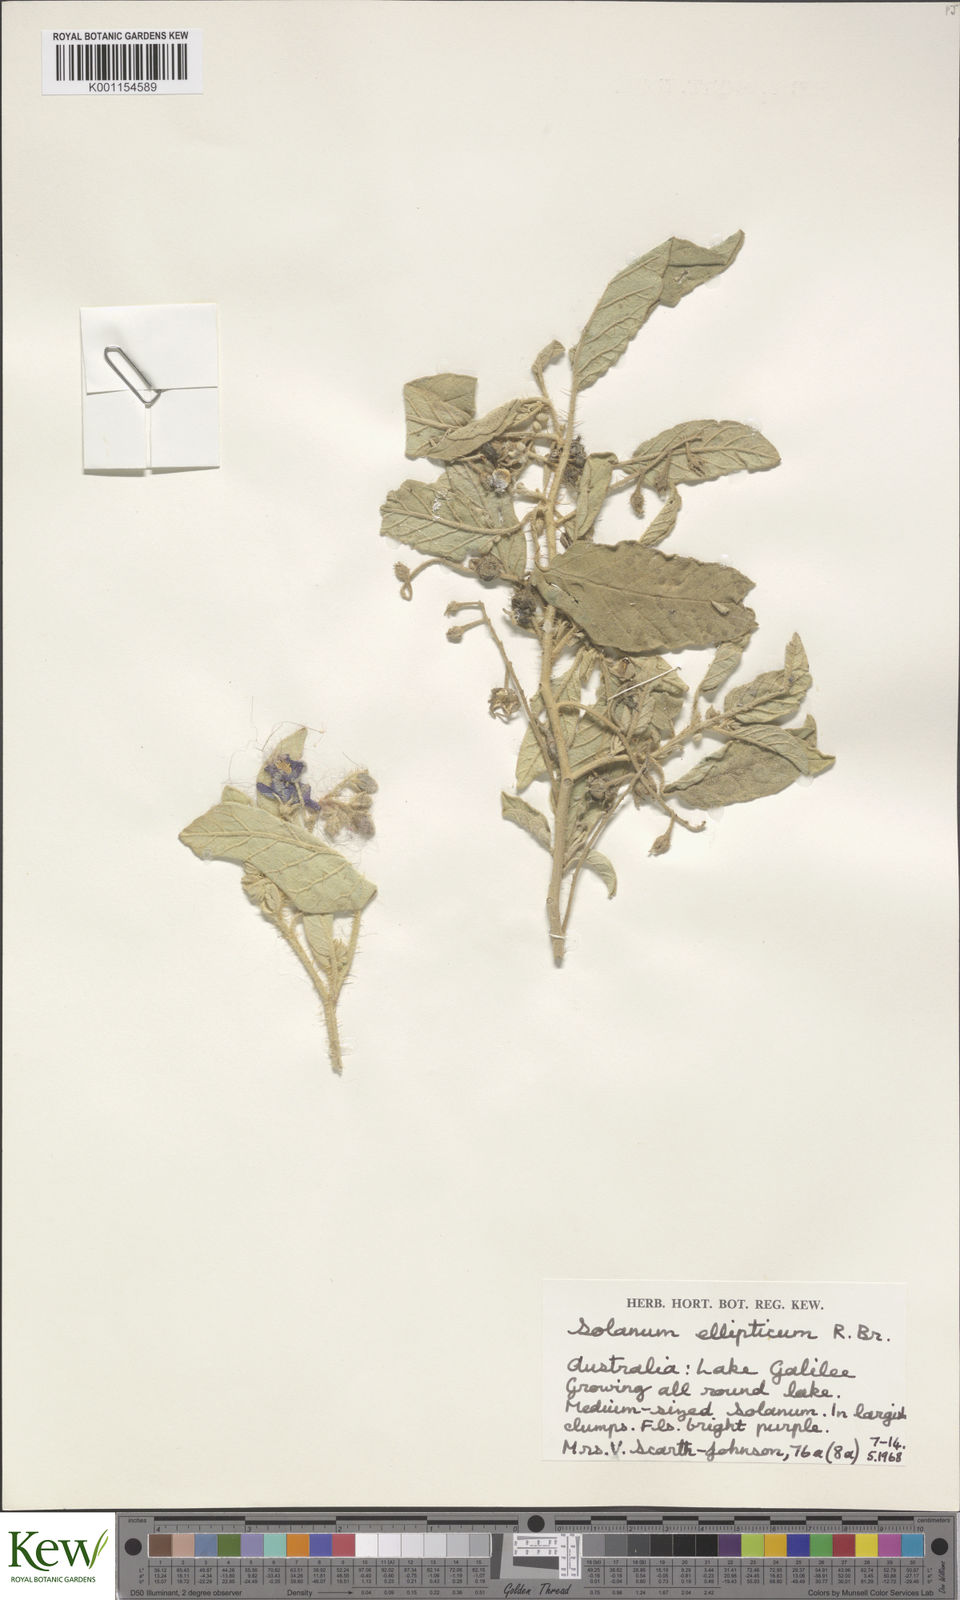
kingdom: Plantae
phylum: Tracheophyta
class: Magnoliopsida
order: Solanales
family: Solanaceae
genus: Solanum
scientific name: Solanum ellipticum
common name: Potato-bush
